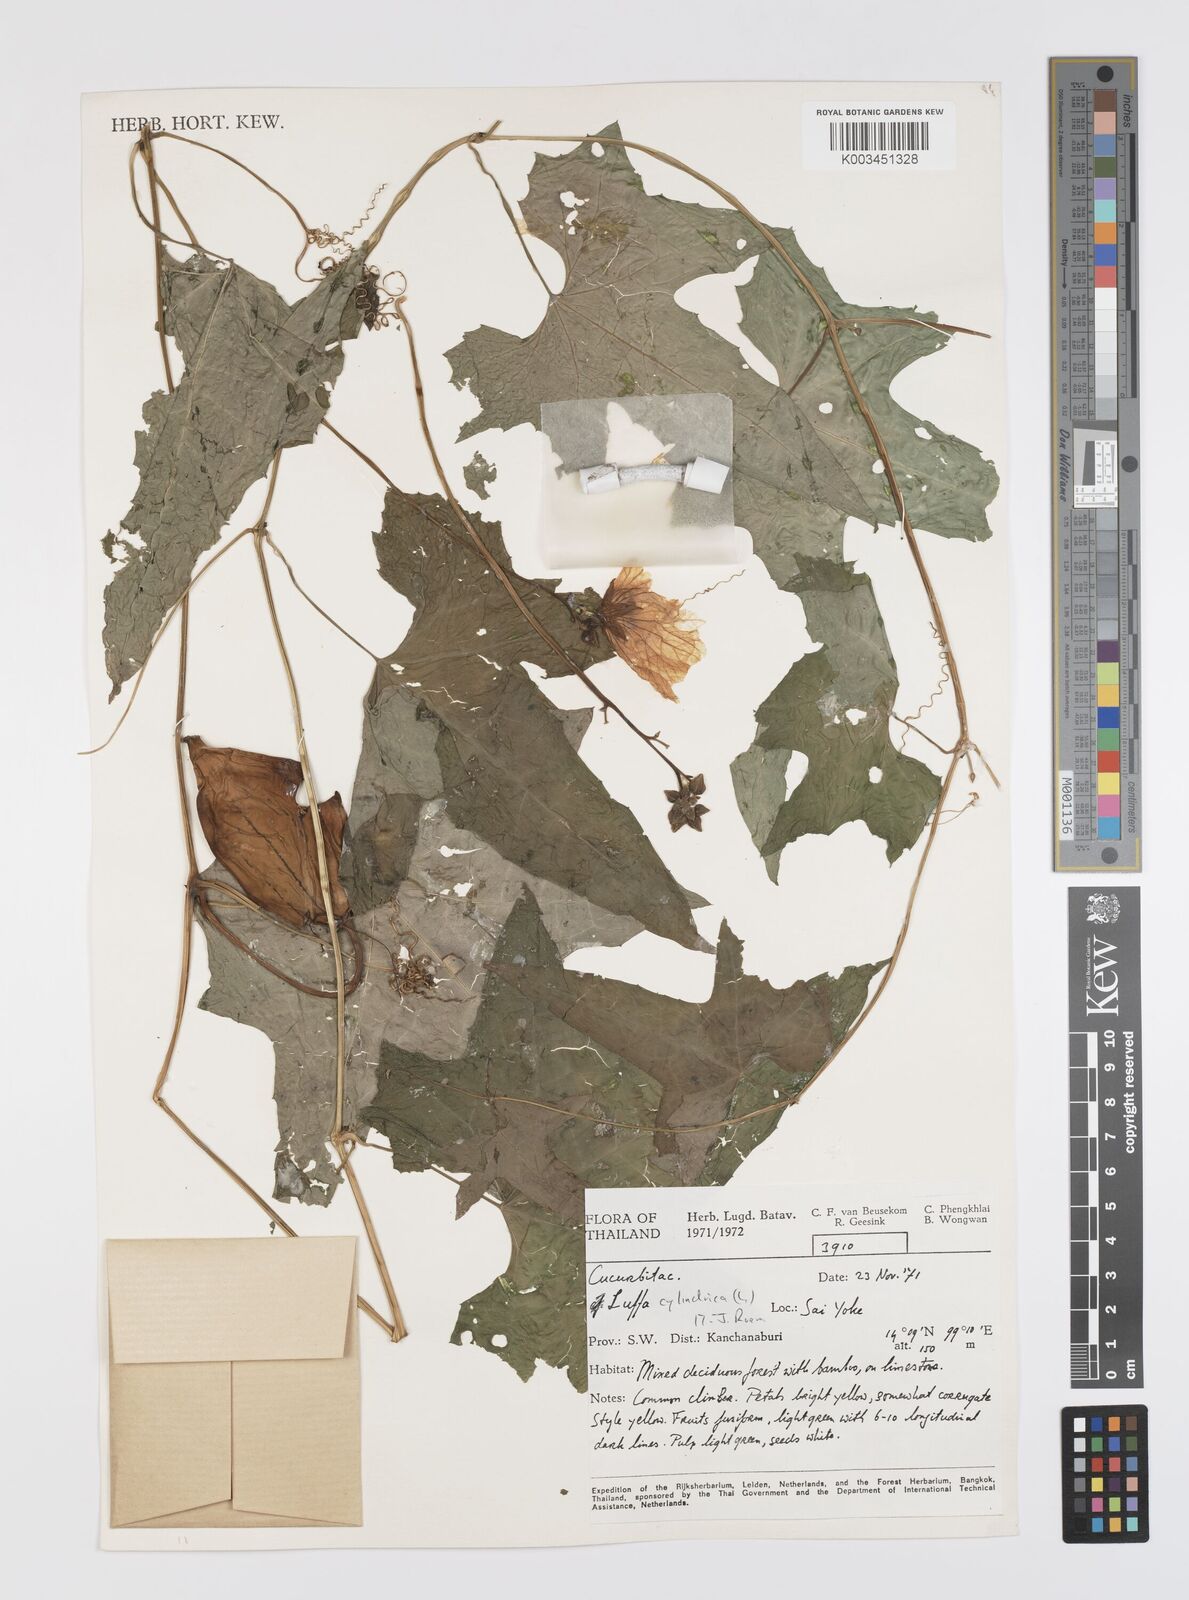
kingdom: Plantae
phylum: Tracheophyta
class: Magnoliopsida
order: Cucurbitales
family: Cucurbitaceae
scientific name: Cucurbitaceae
